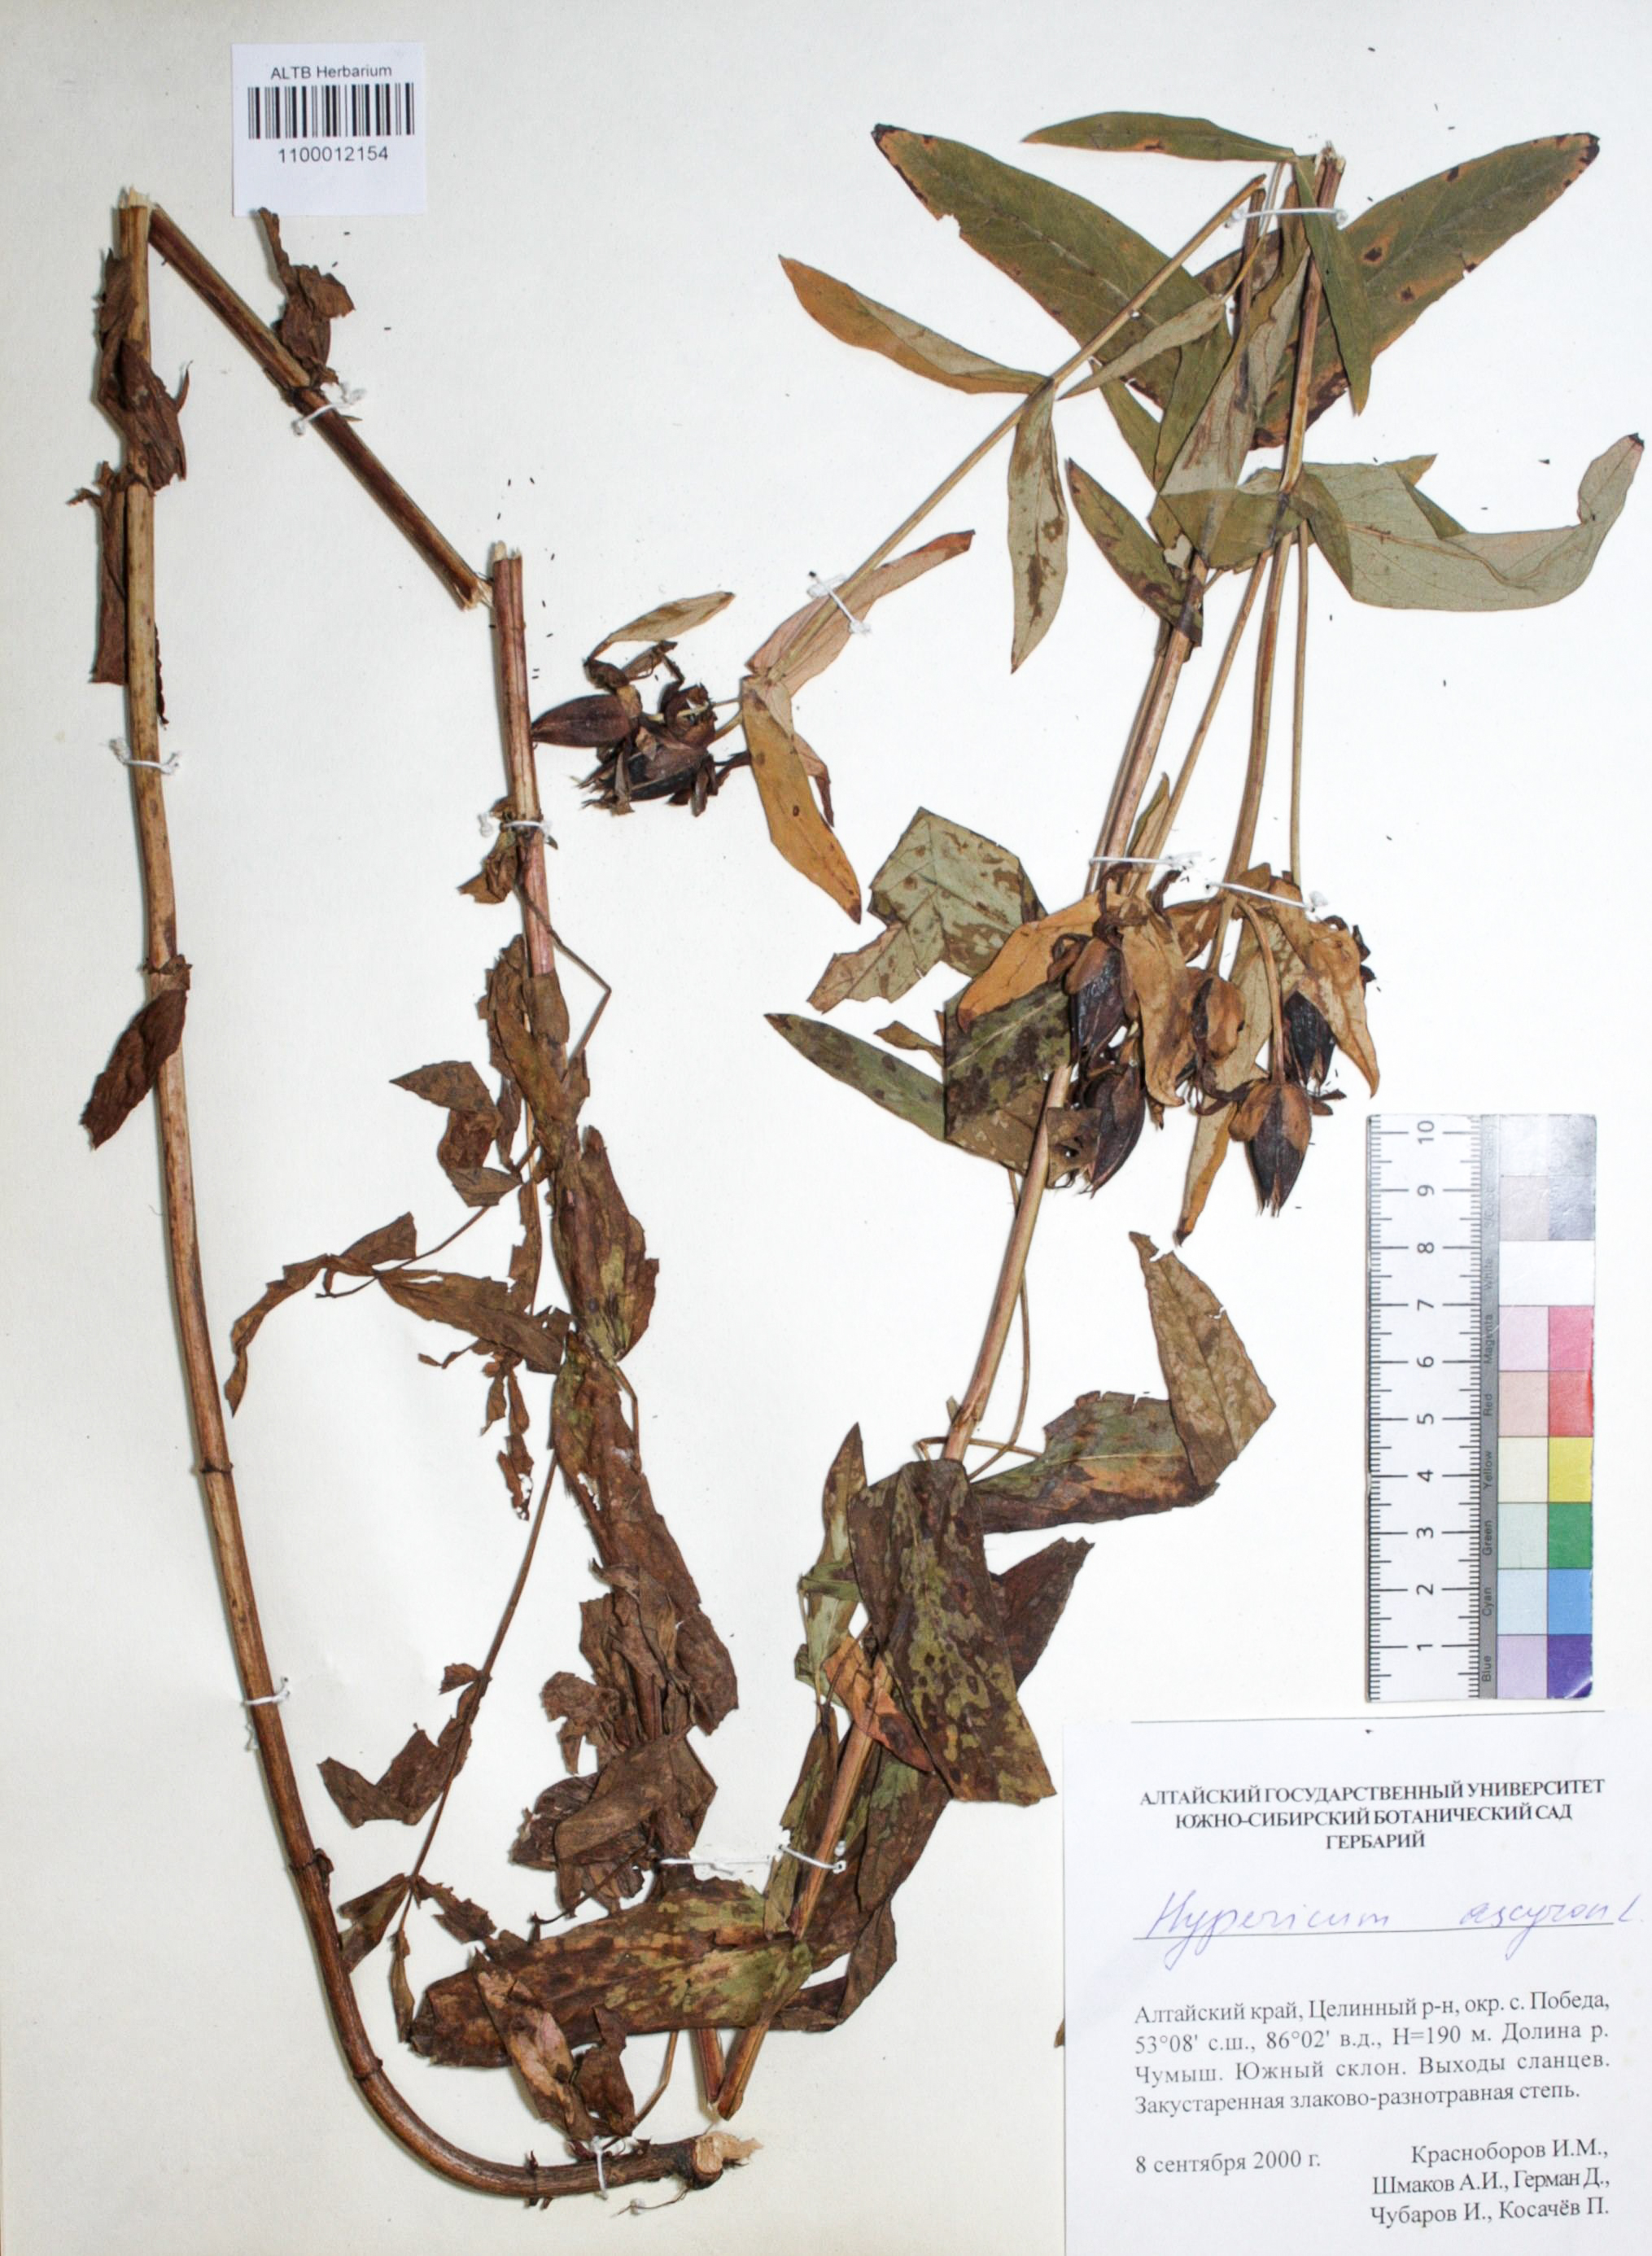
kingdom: Plantae
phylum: Tracheophyta
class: Magnoliopsida
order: Malpighiales
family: Hypericaceae
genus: Hypericum
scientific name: Hypericum ascyron
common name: Giant st. john's-wort
